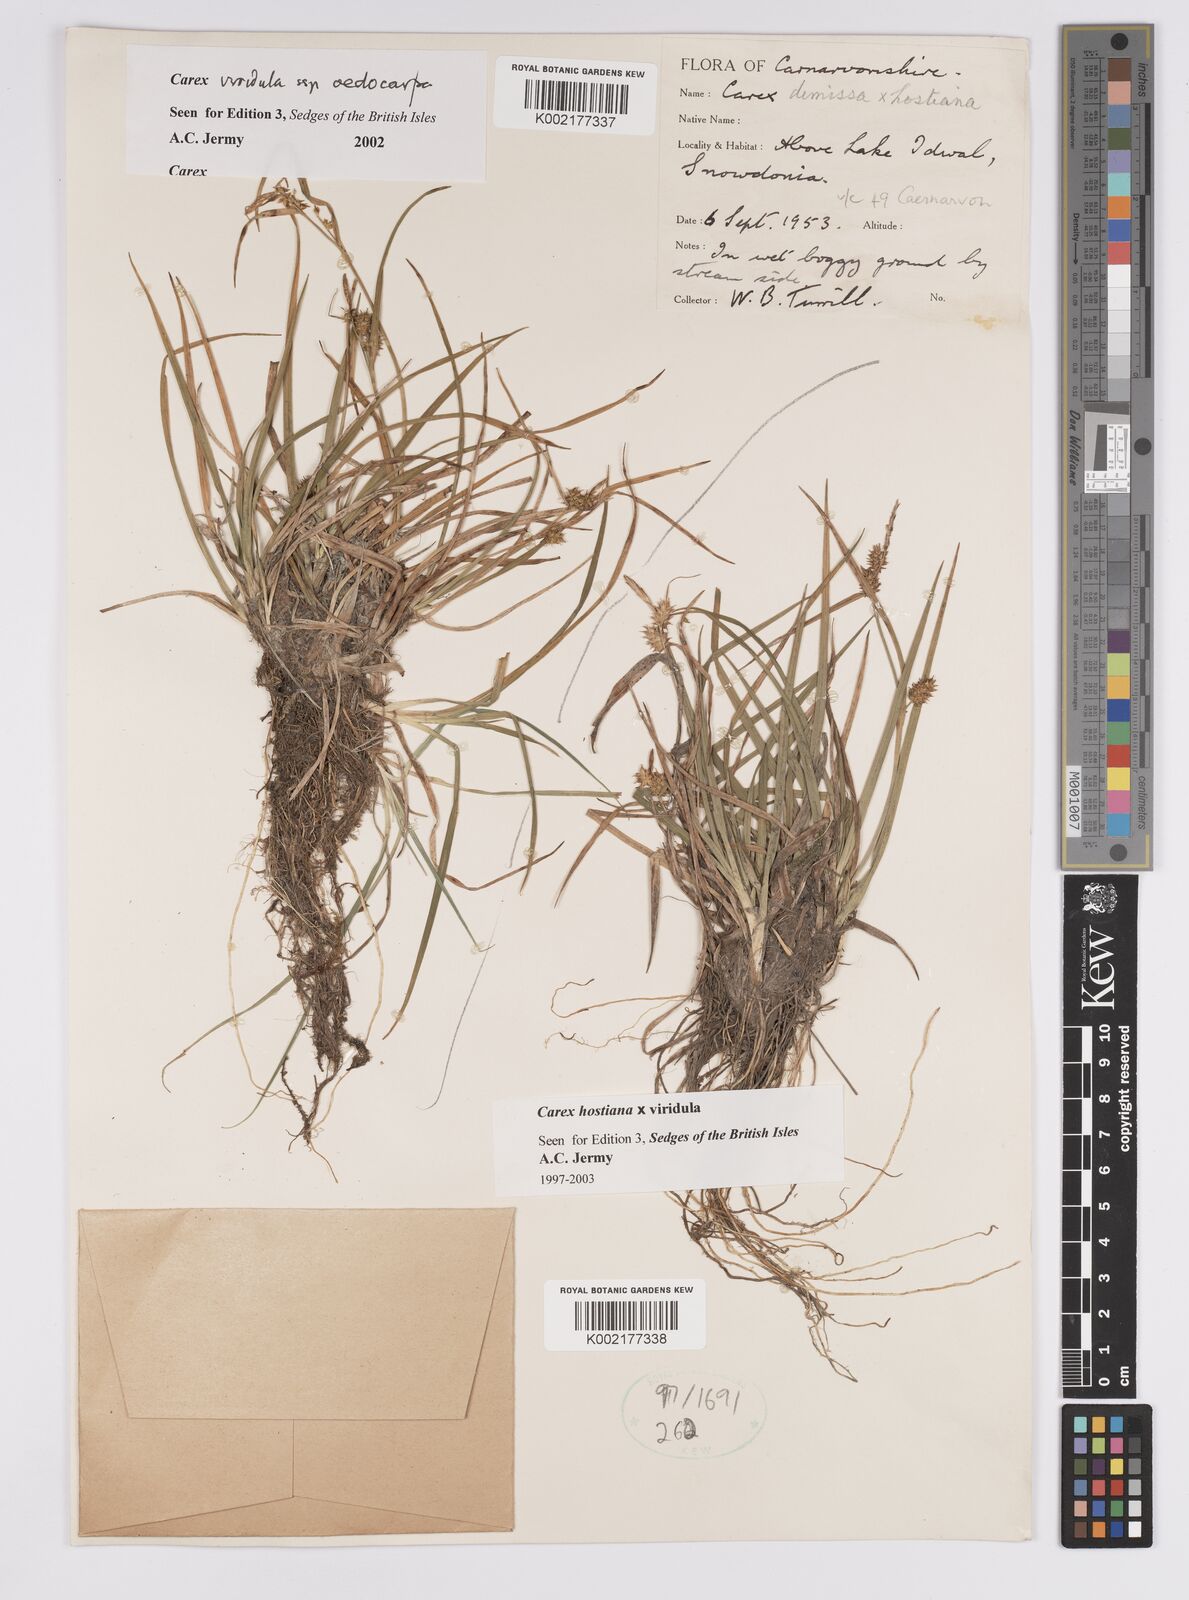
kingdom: Plantae
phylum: Tracheophyta
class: Liliopsida
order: Poales
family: Cyperaceae
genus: Carex
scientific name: Carex hostiana
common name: Tawny sedge
